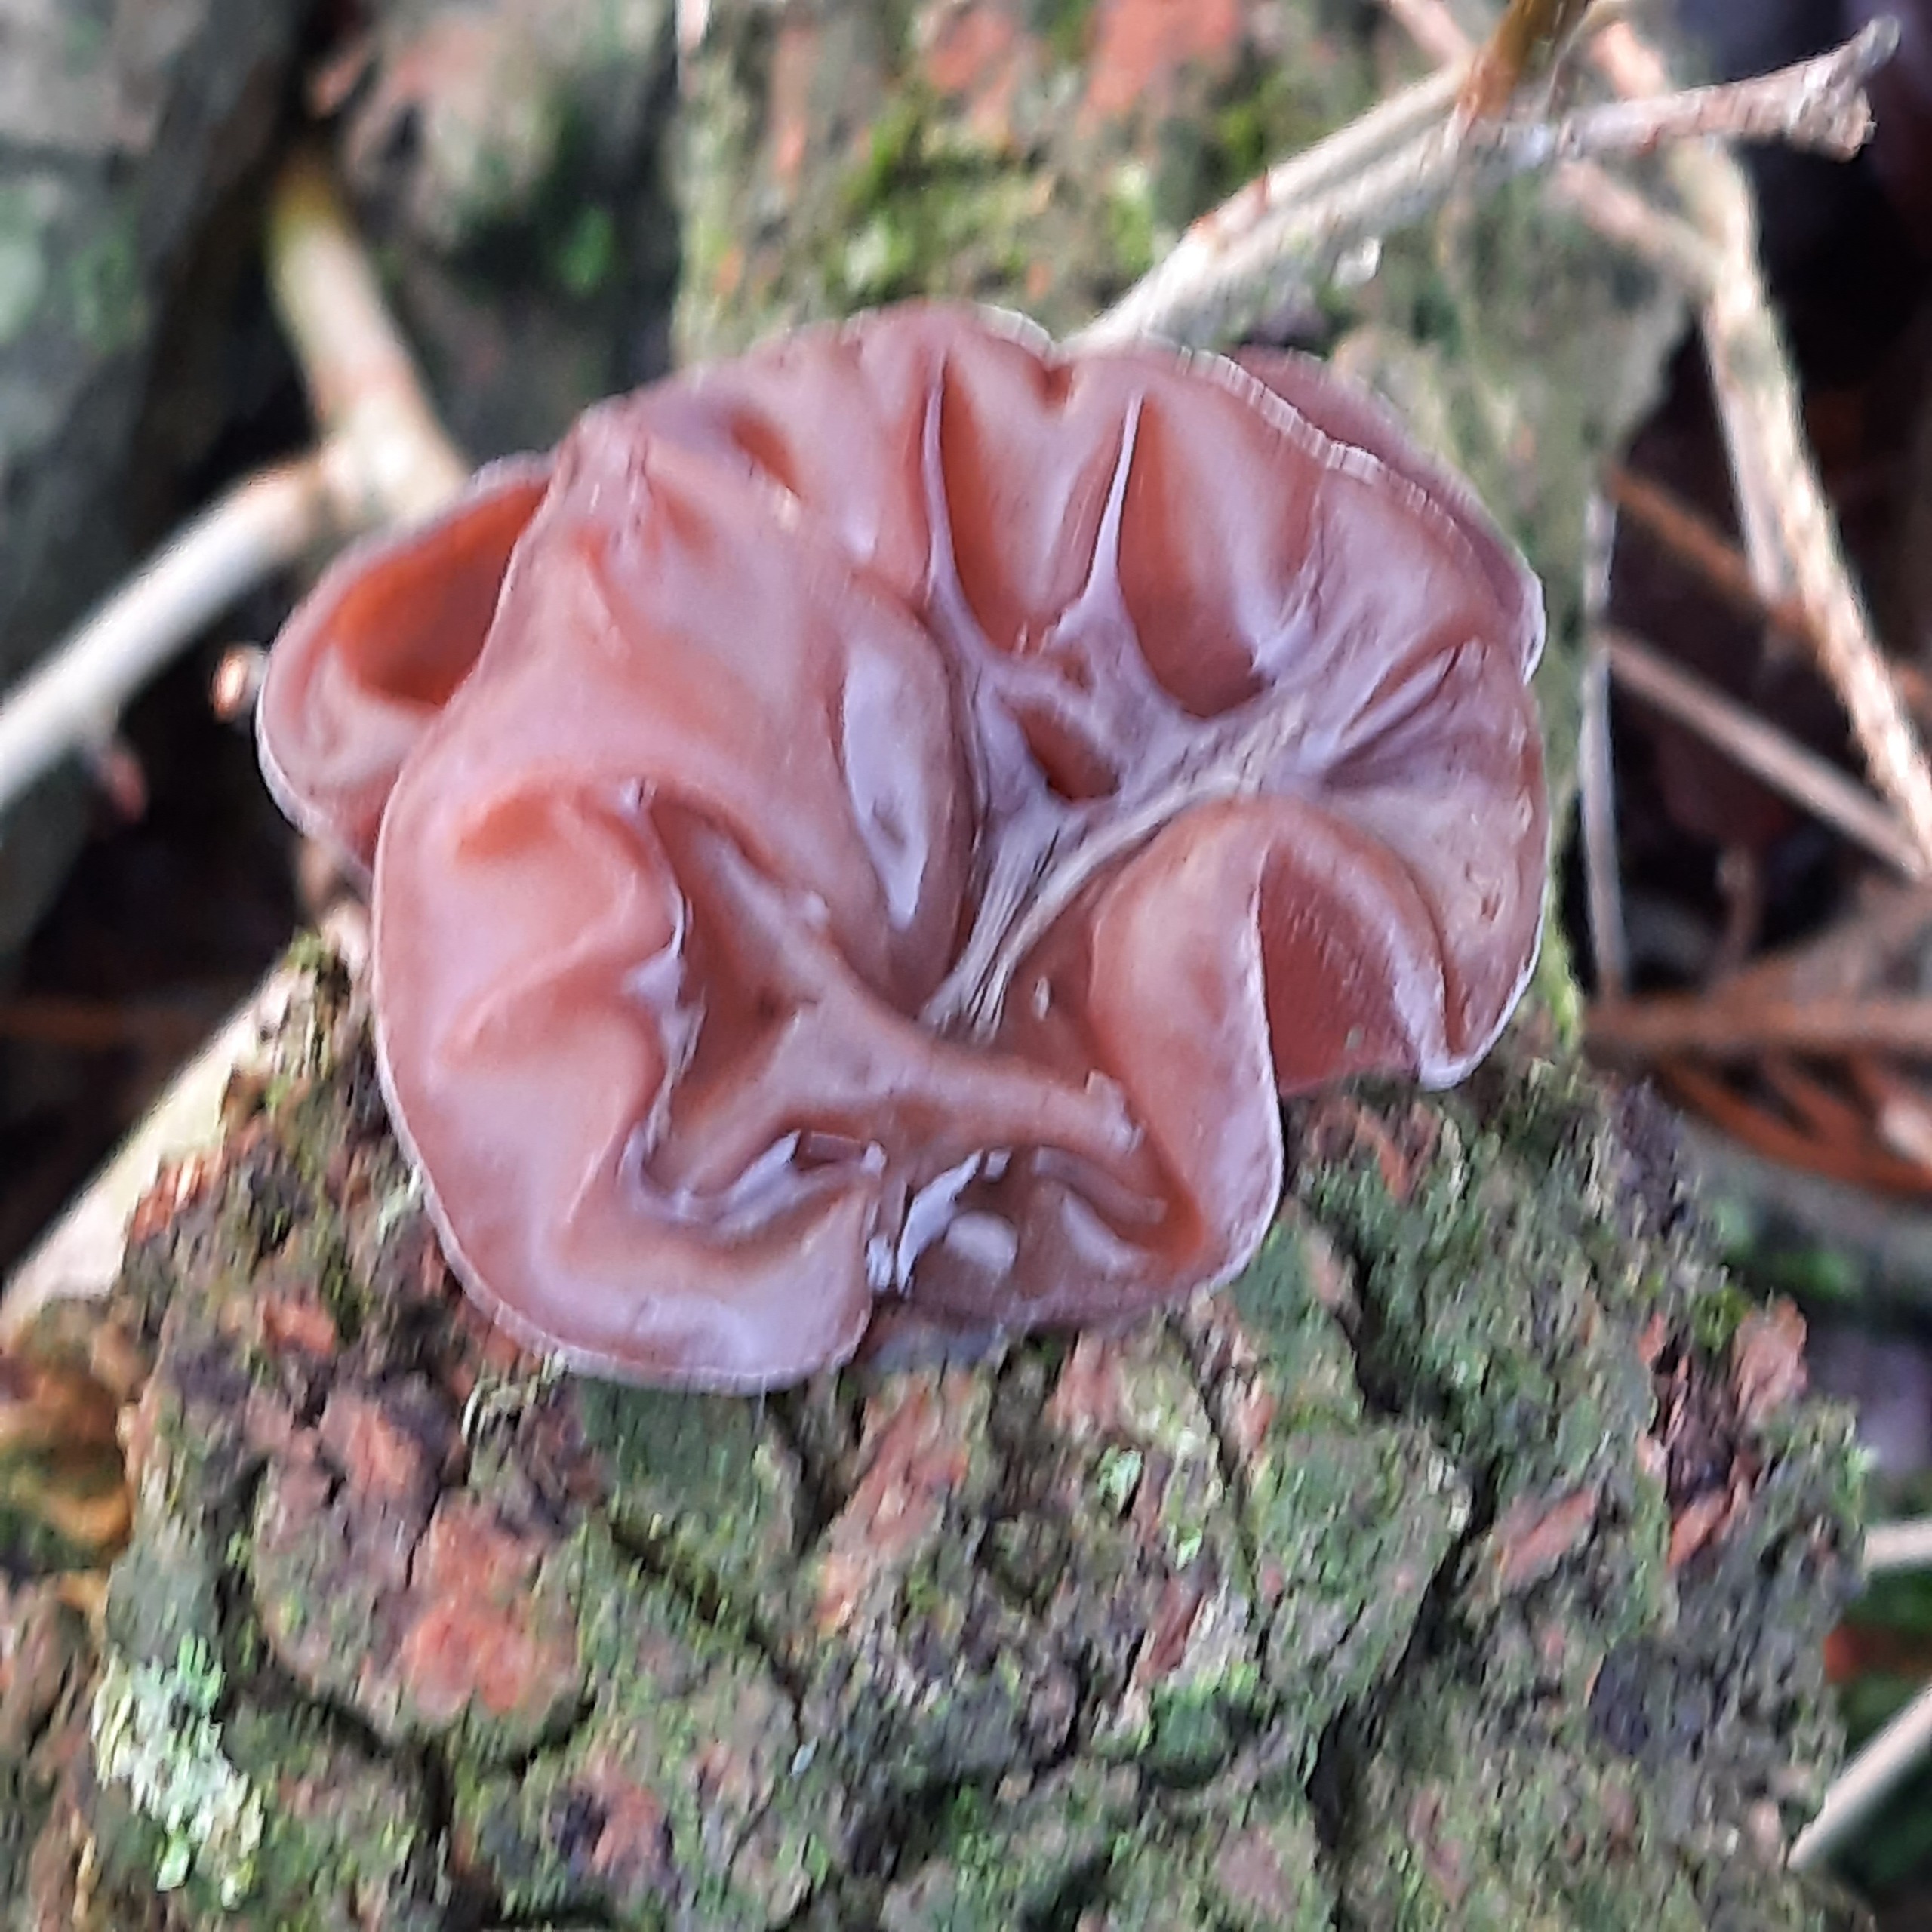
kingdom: Fungi
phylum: Basidiomycota
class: Agaricomycetes
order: Auriculariales
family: Auriculariaceae
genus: Auricularia
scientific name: Auricularia auricula-judae
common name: Almindelig judasøre
